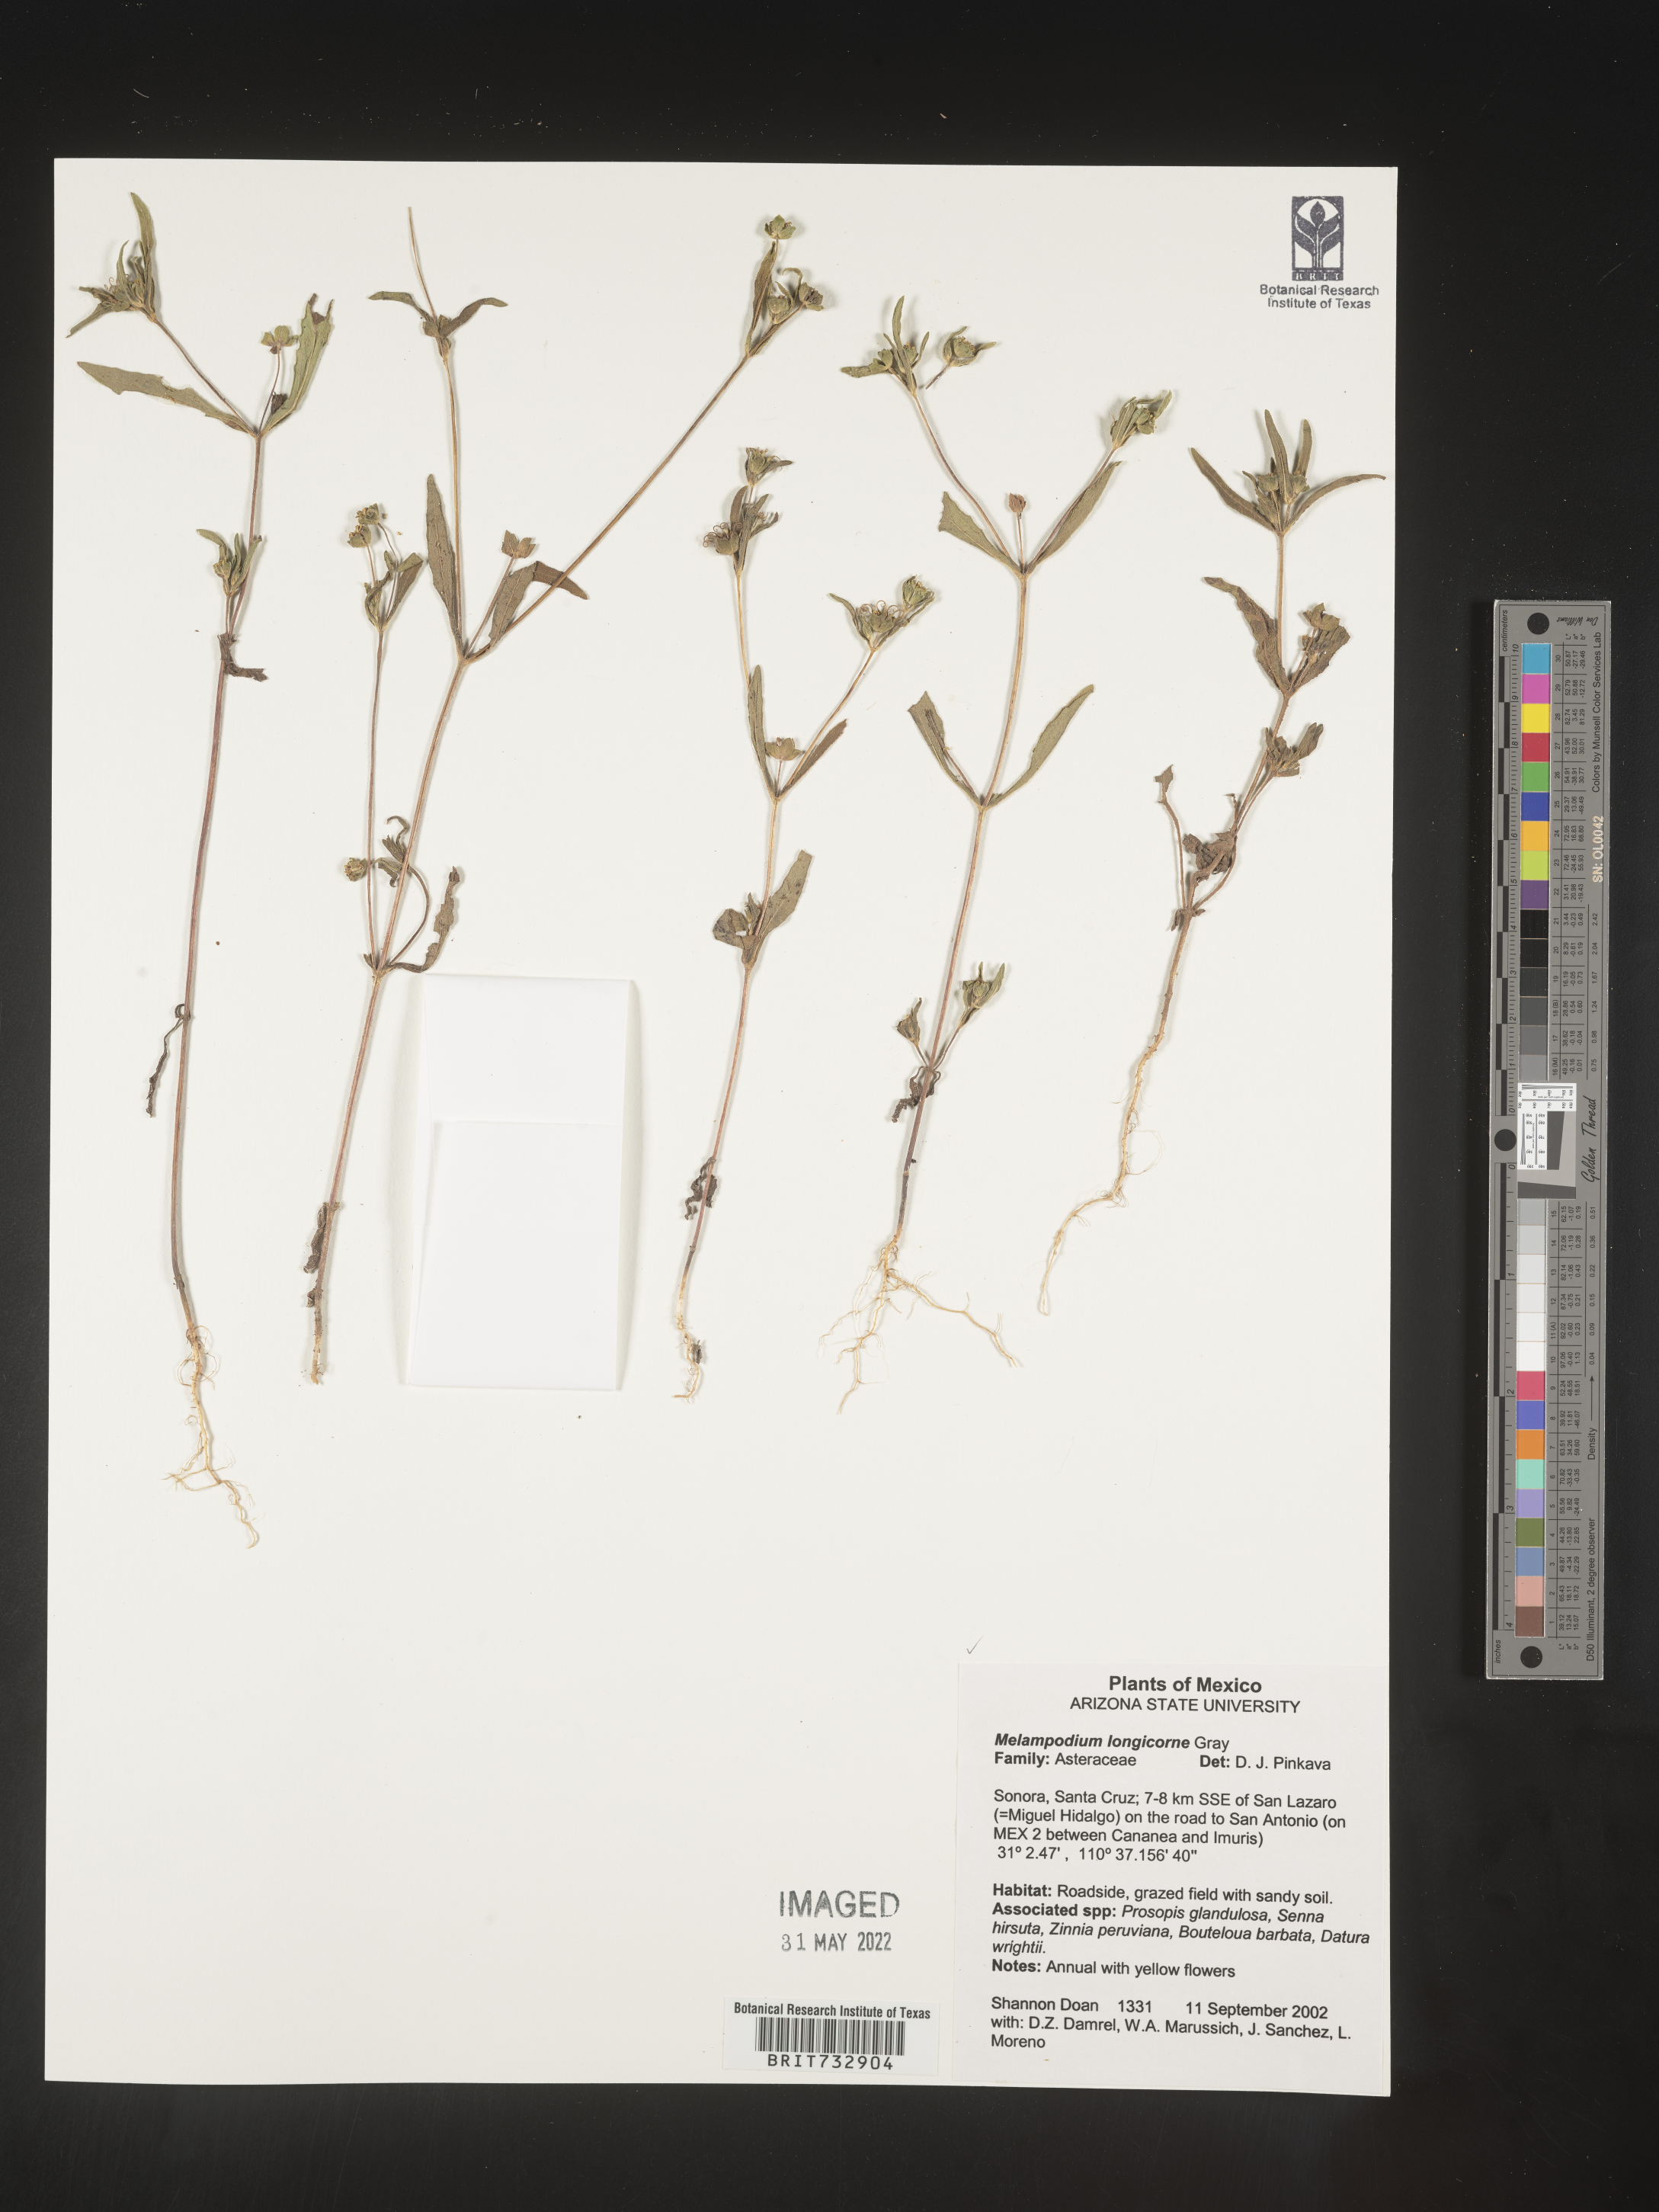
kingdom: Plantae
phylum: Tracheophyta
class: Magnoliopsida
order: Asterales
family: Asteraceae
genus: Melampodium
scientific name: Melampodium
